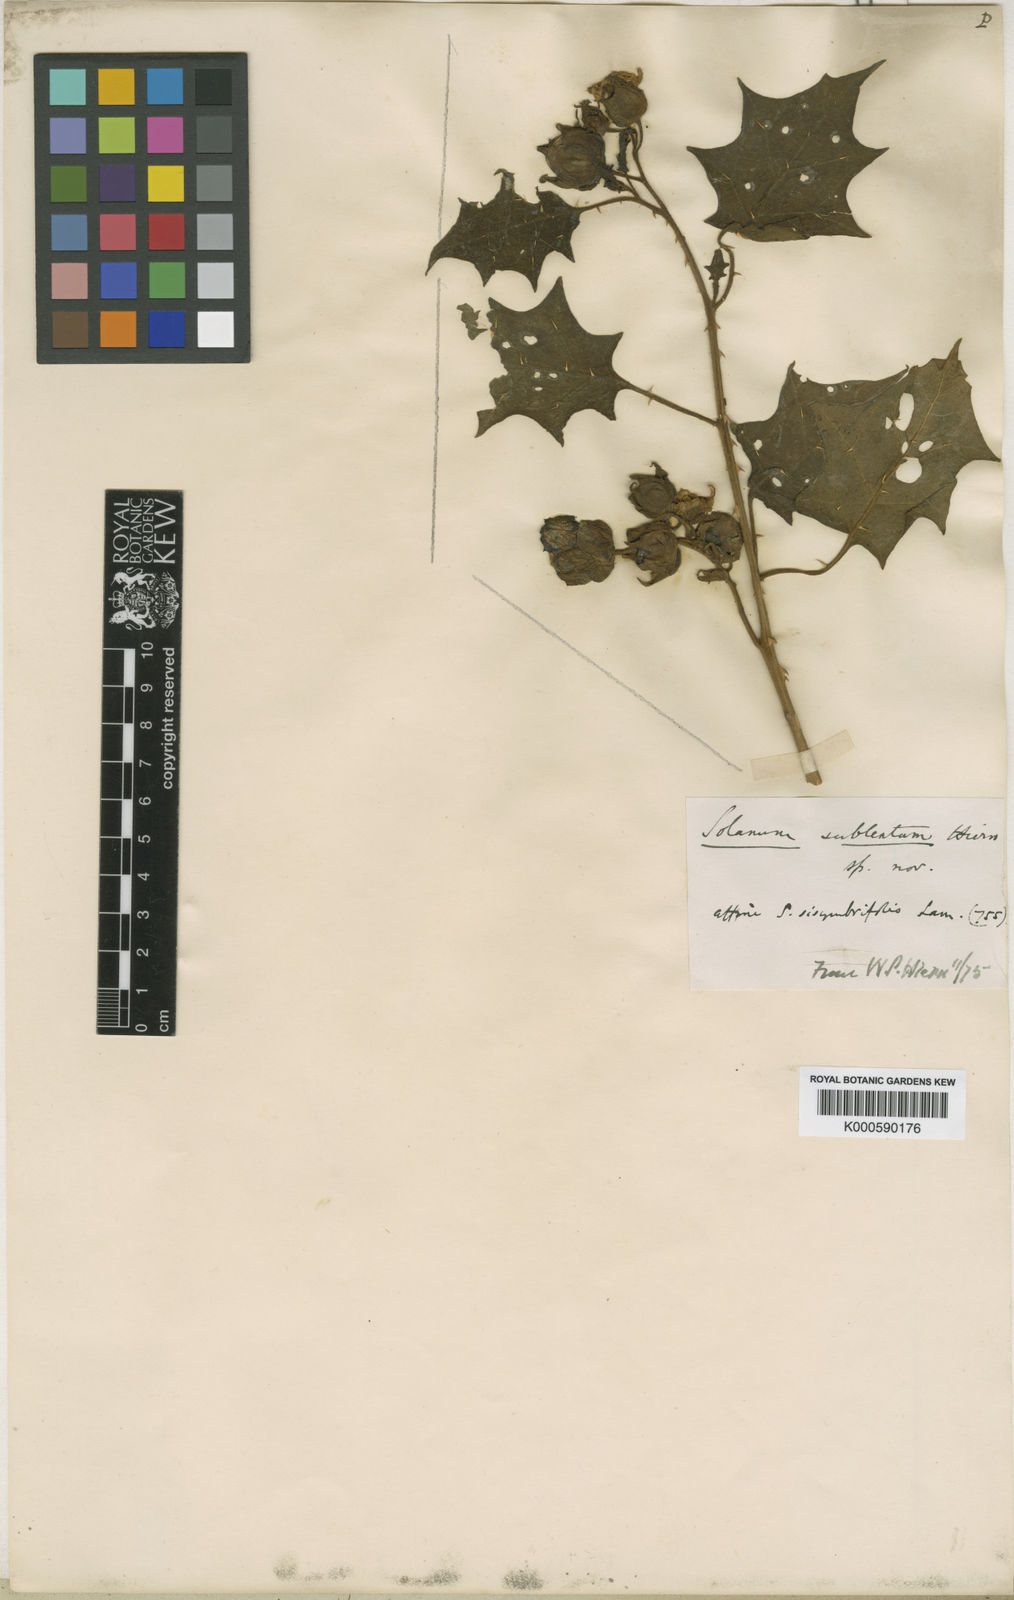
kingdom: Plantae
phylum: Tracheophyta
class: Magnoliopsida
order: Solanales
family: Solanaceae
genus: Solanum
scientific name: Solanum sublentum
